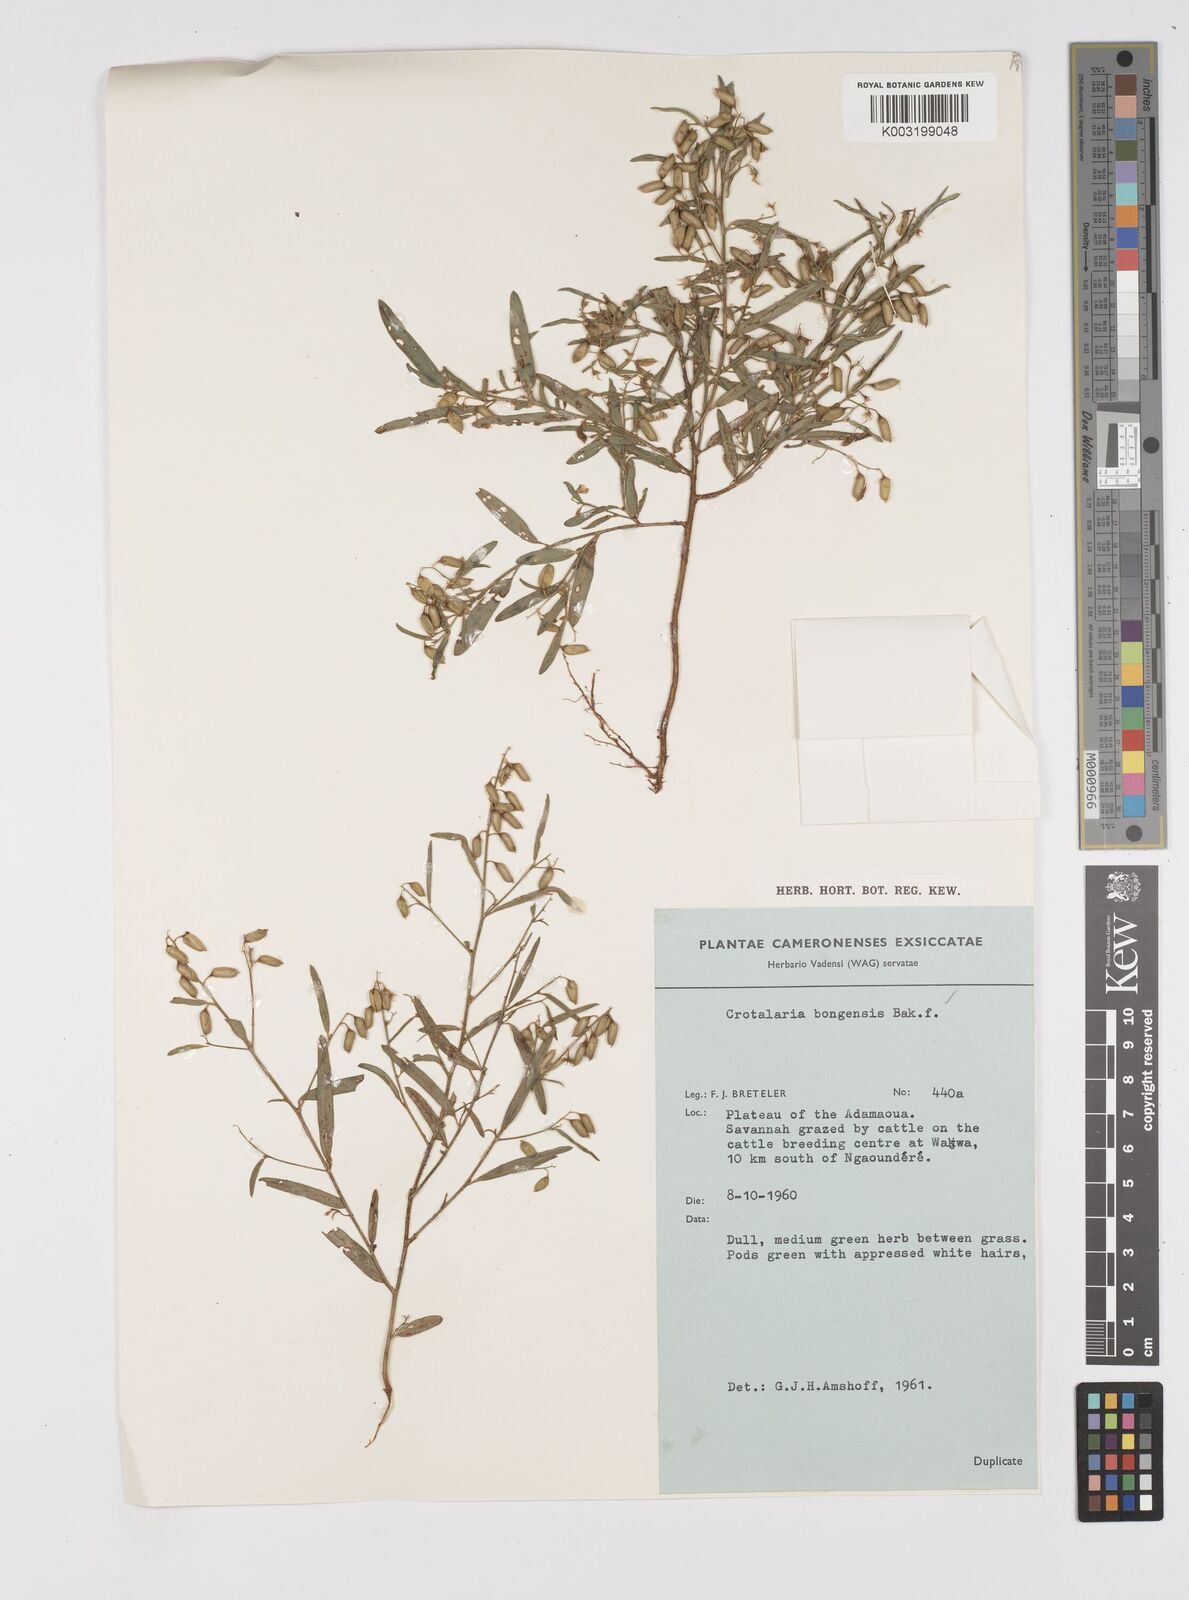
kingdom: Plantae
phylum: Tracheophyta
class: Magnoliopsida
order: Fabales
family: Fabaceae
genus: Crotalaria
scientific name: Crotalaria bongensis
